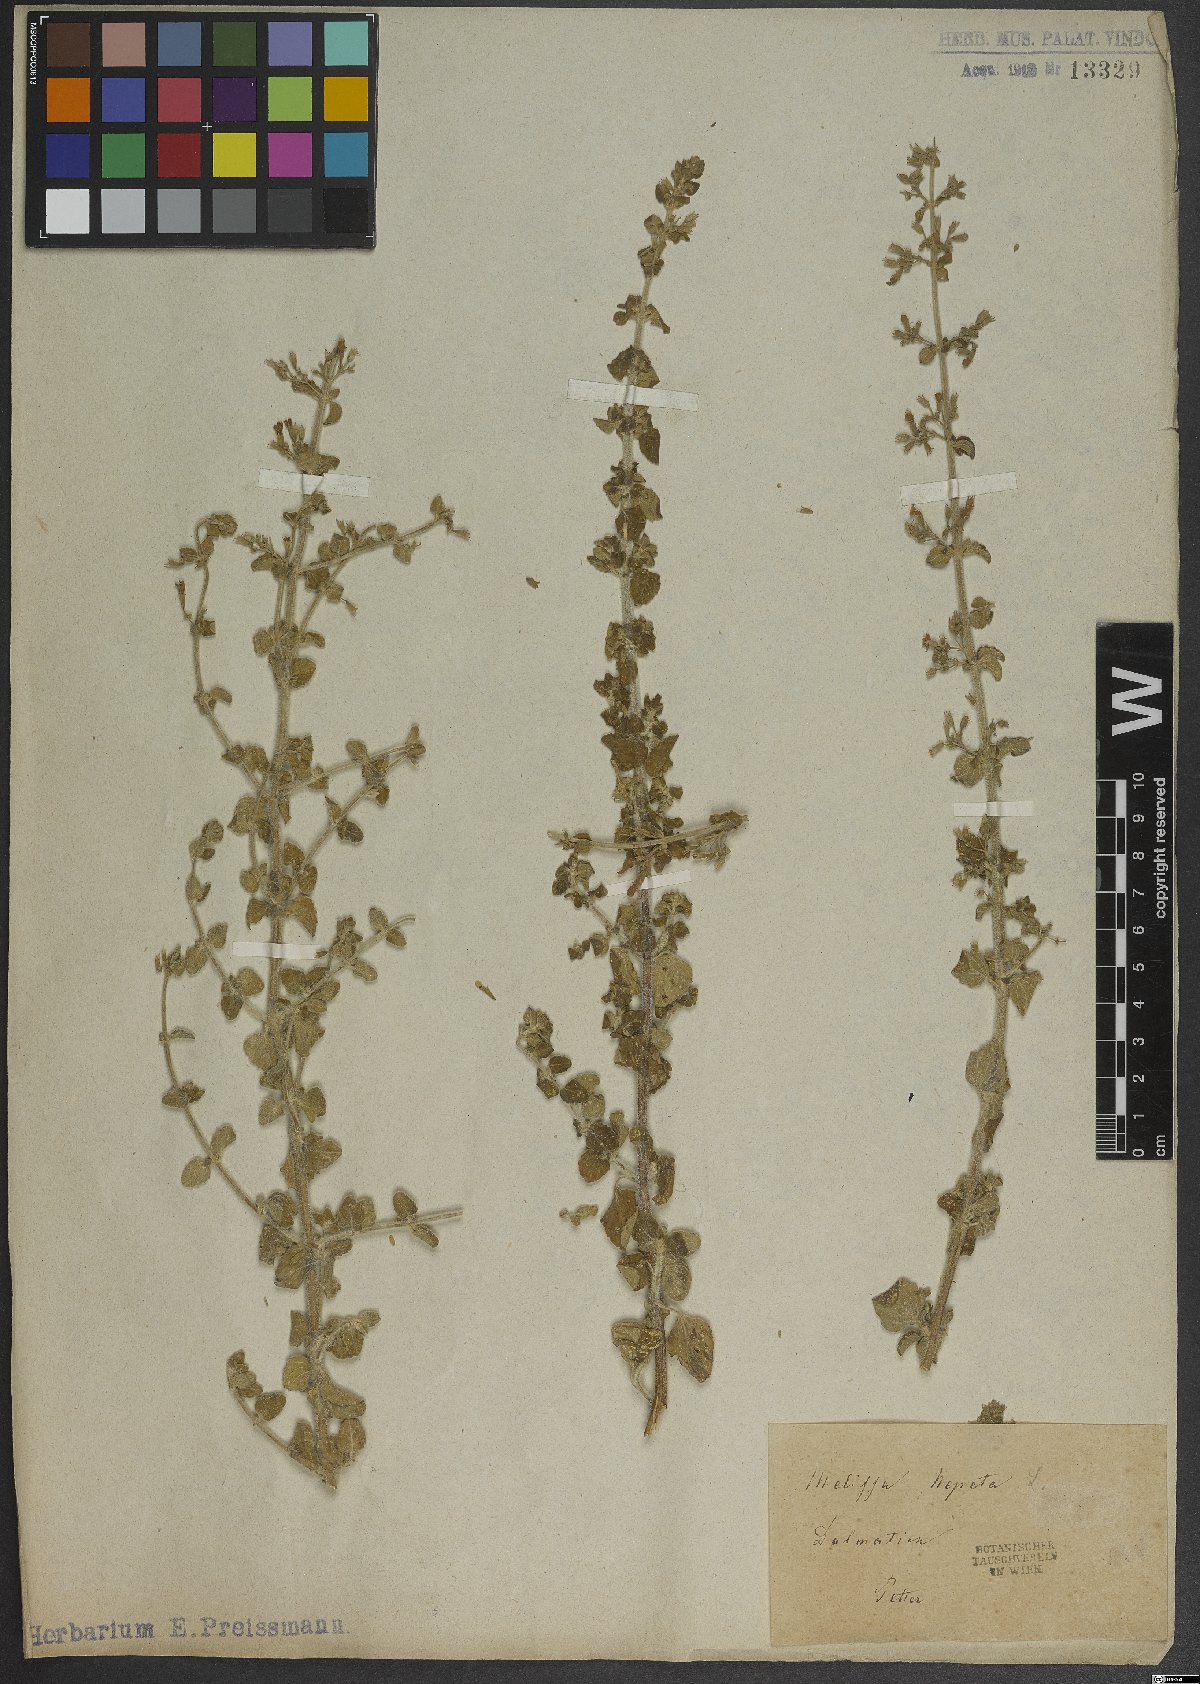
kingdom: Plantae
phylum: Tracheophyta
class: Magnoliopsida
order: Lamiales
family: Lamiaceae
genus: Clinopodium
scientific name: Clinopodium nepeta
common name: Lesser calamint
